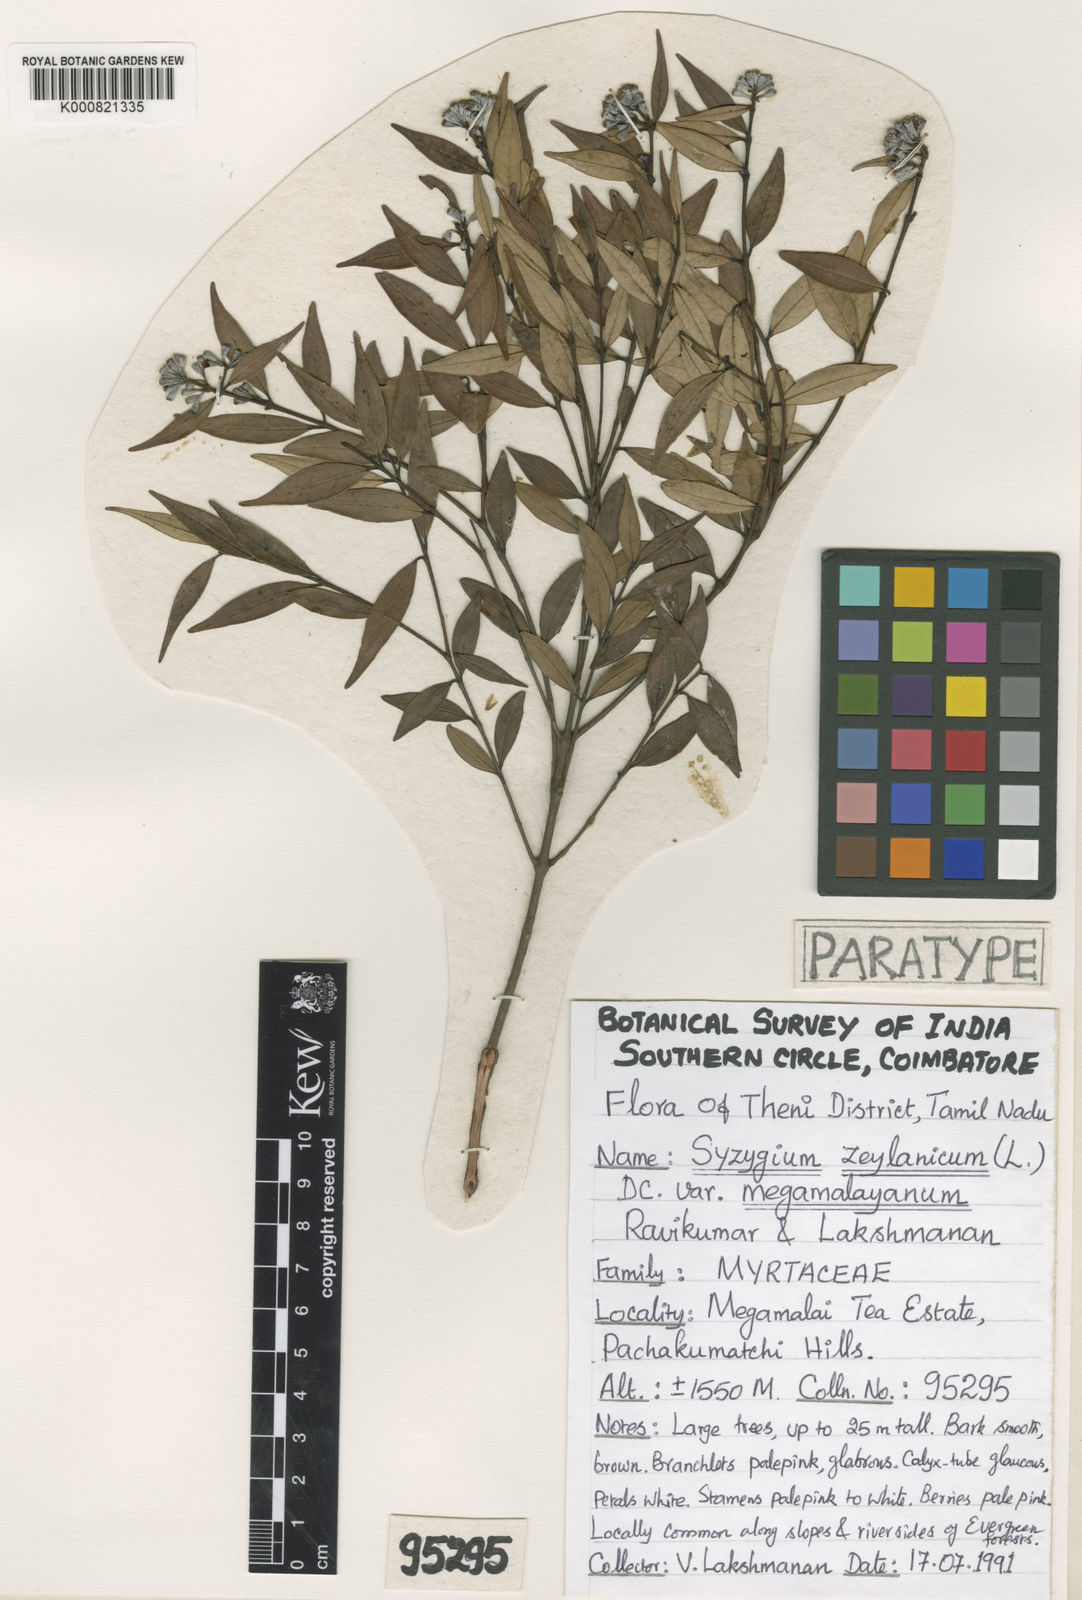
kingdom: Plantae
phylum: Tracheophyta
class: Magnoliopsida
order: Myrtales
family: Myrtaceae
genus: Syzygium
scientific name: Syzygium zeylanicum
